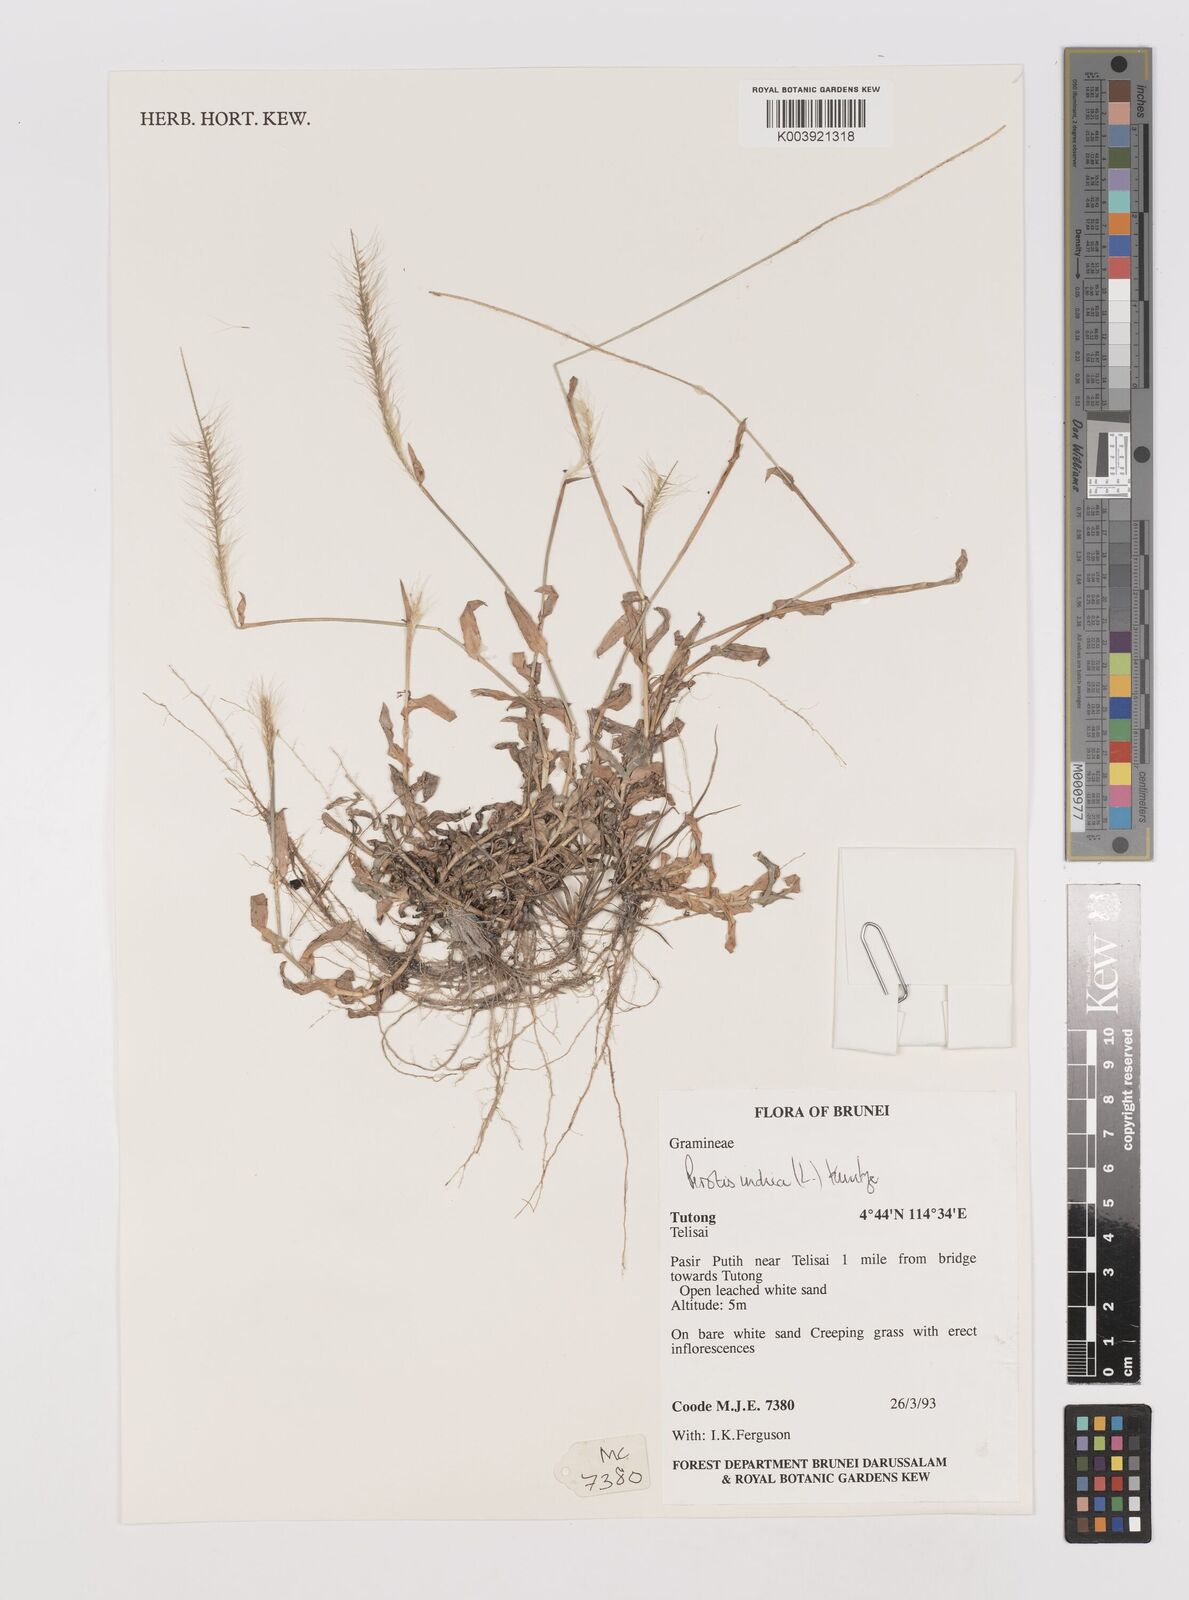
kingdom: Plantae
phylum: Tracheophyta
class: Liliopsida
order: Poales
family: Poaceae
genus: Perotis
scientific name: Perotis indica
